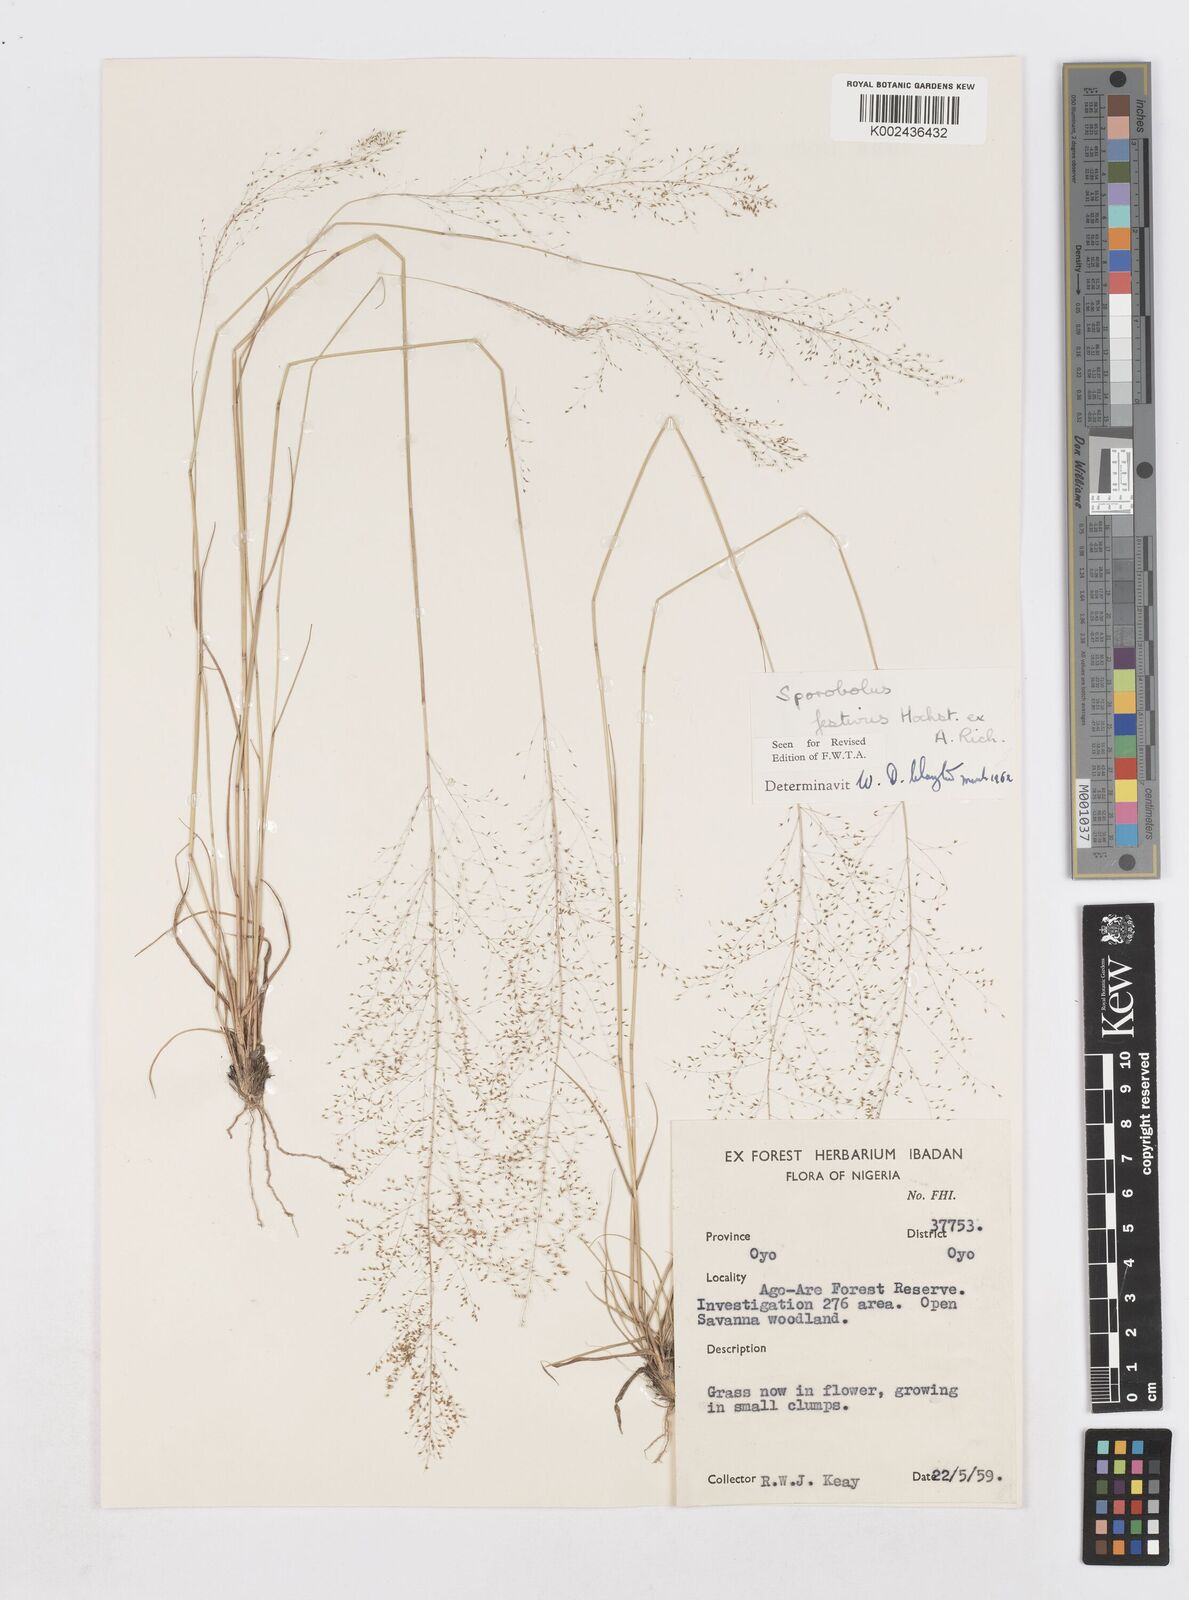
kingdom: Plantae
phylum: Tracheophyta
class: Liliopsida
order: Poales
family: Poaceae
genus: Sporobolus
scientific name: Sporobolus festivus
